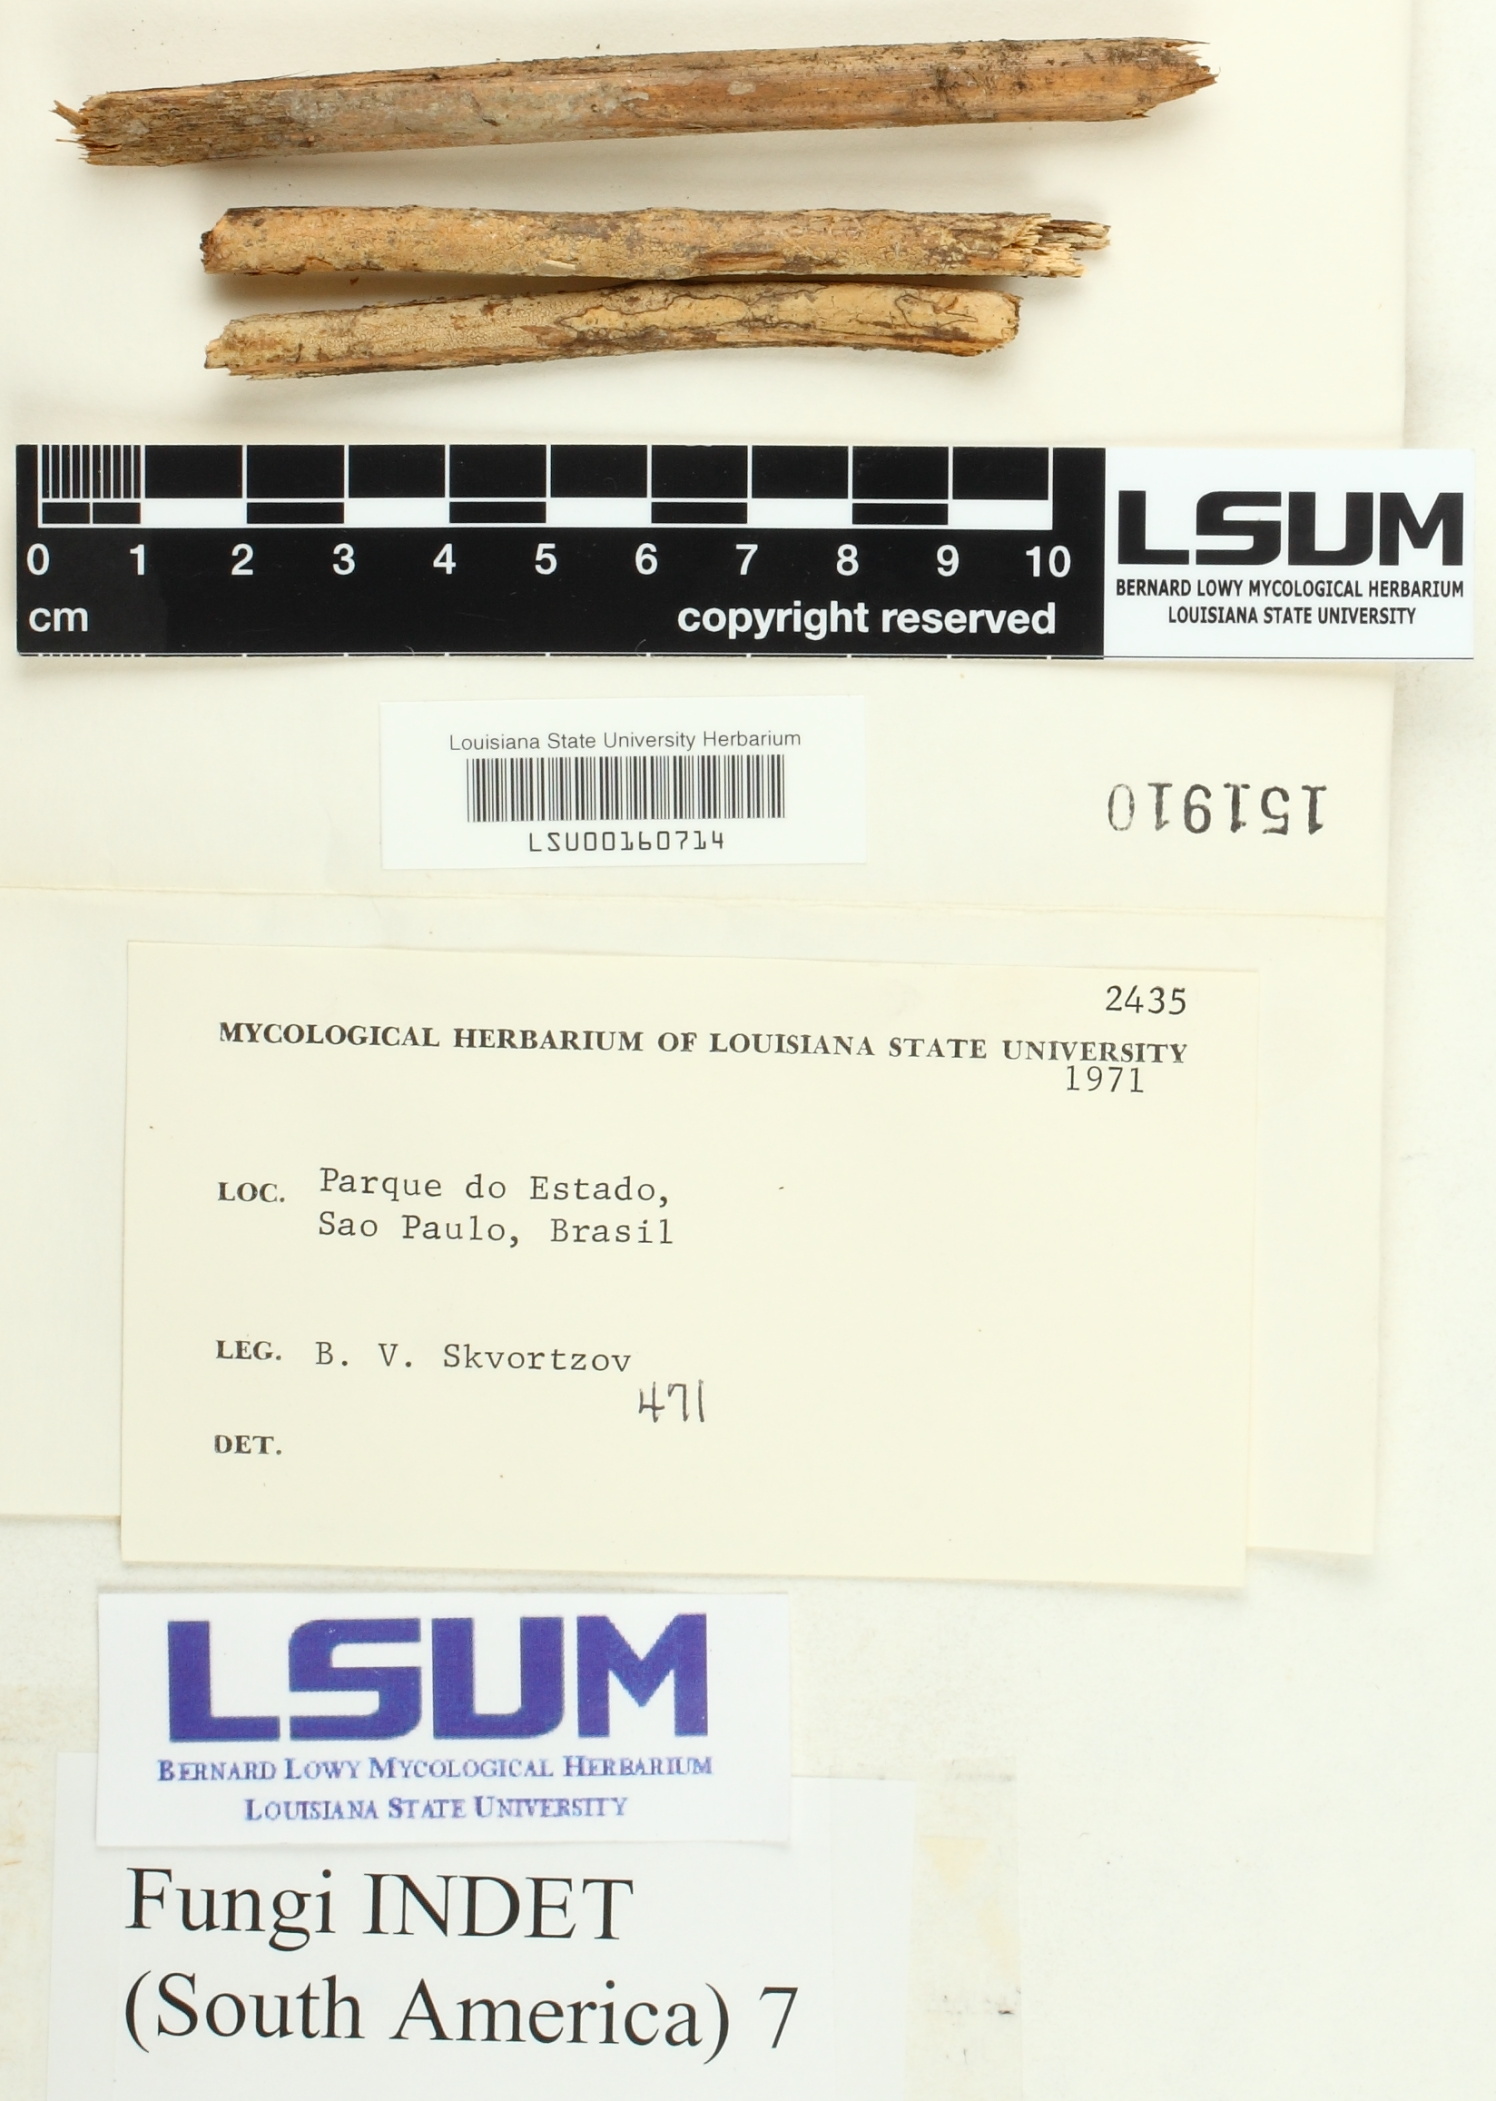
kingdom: Fungi
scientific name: Fungi
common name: Fungi
